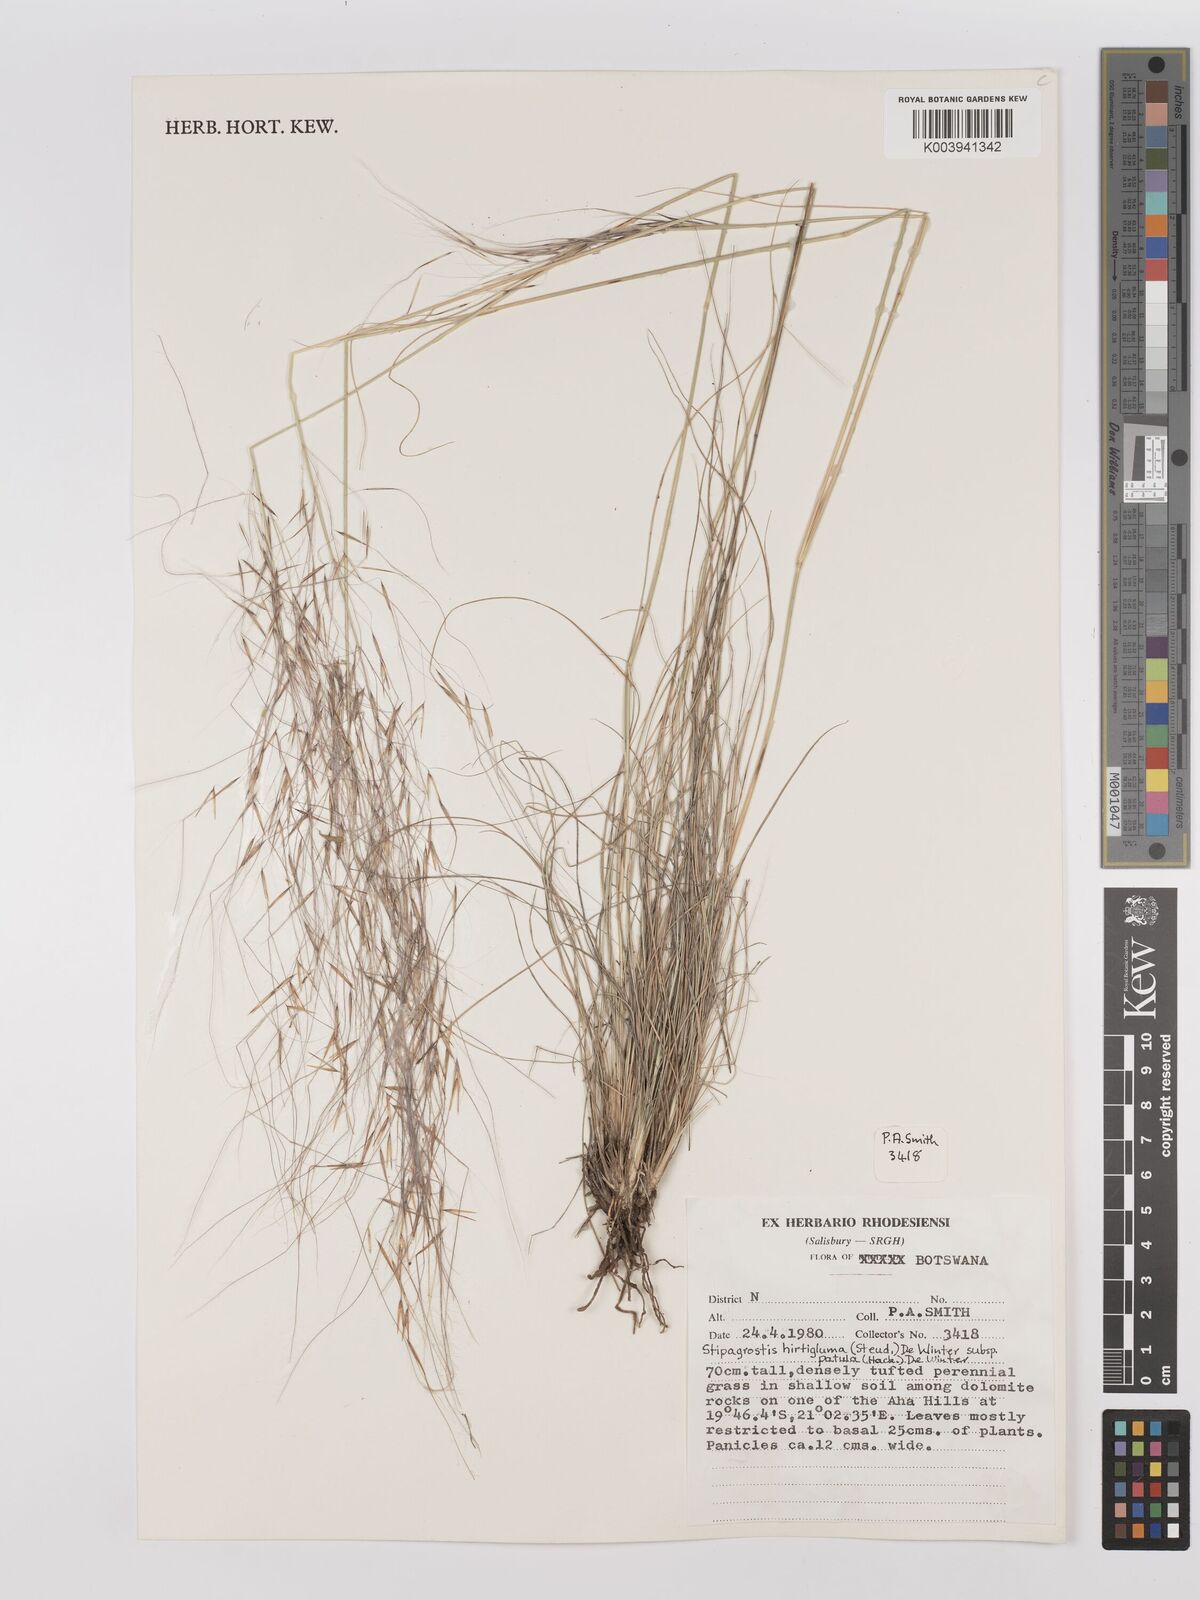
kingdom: Plantae
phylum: Tracheophyta
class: Liliopsida
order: Poales
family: Poaceae
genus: Stipagrostis
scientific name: Stipagrostis hirtigluma
